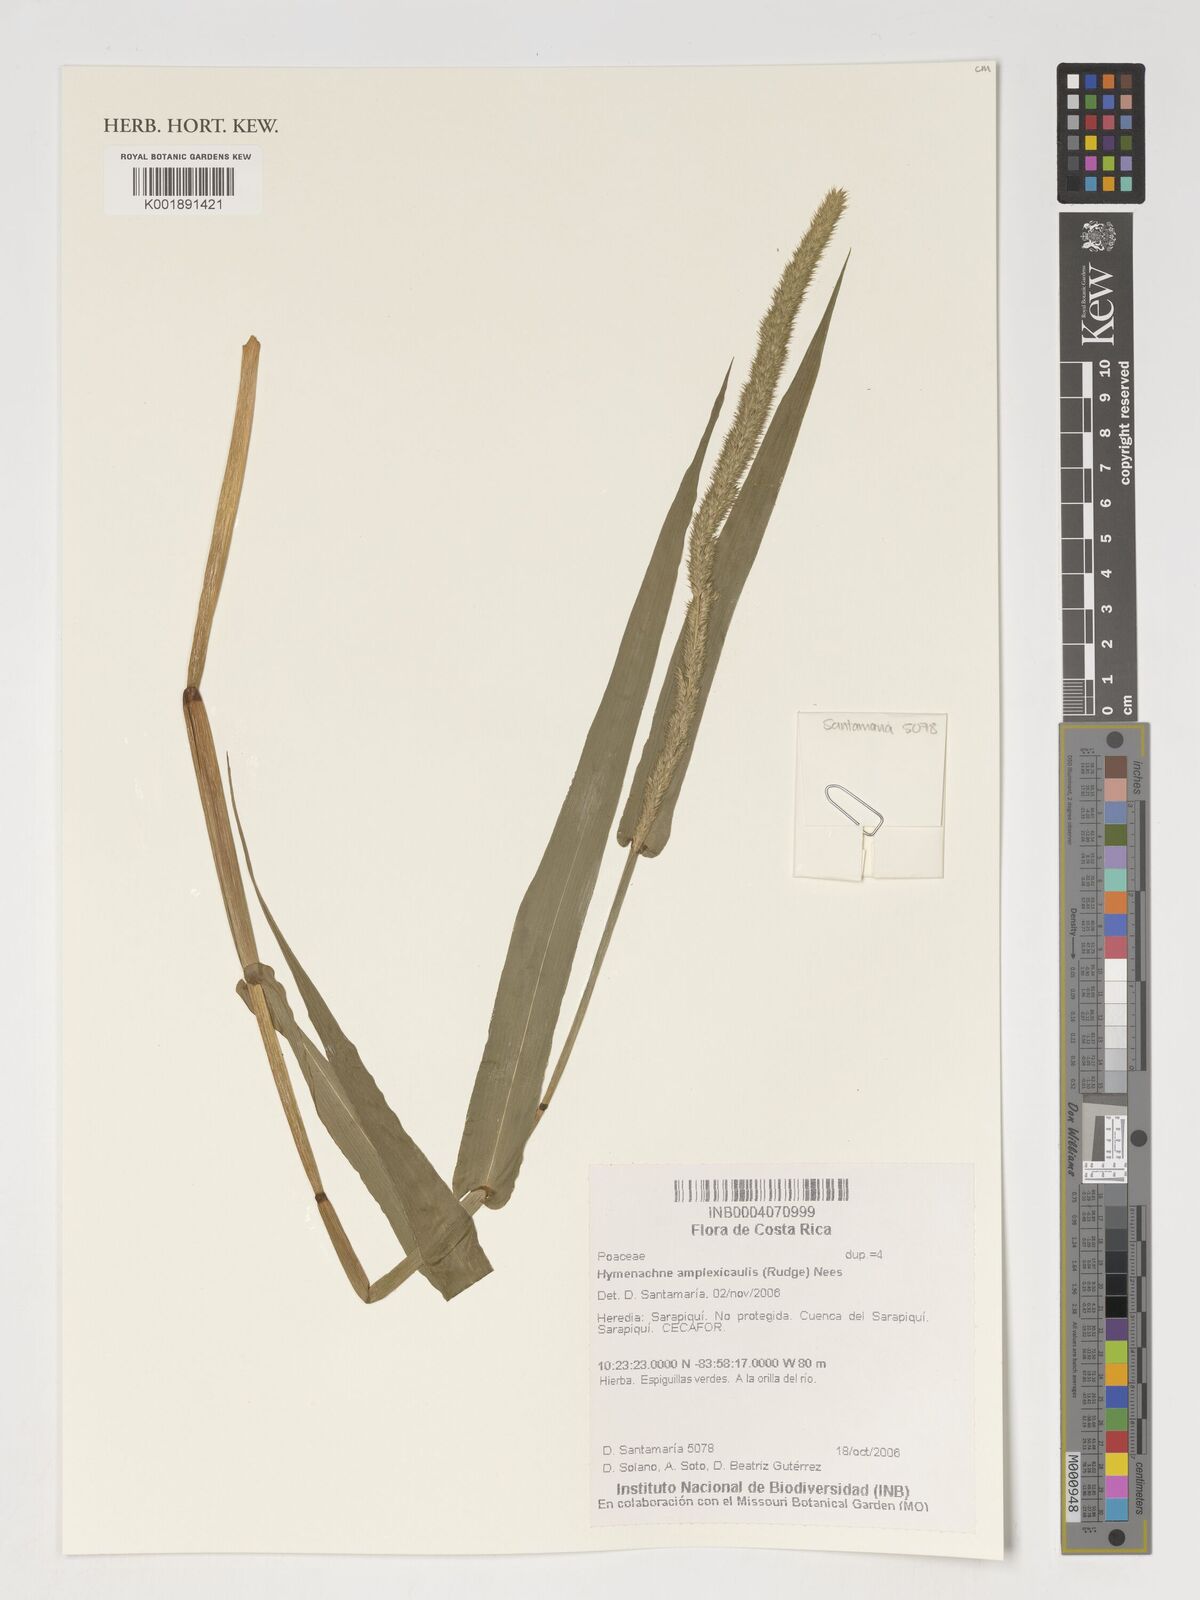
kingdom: Plantae
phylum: Tracheophyta
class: Liliopsida
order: Poales
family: Poaceae
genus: Hymenachne
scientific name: Hymenachne amplexicaulis
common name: Olive hymenachne
